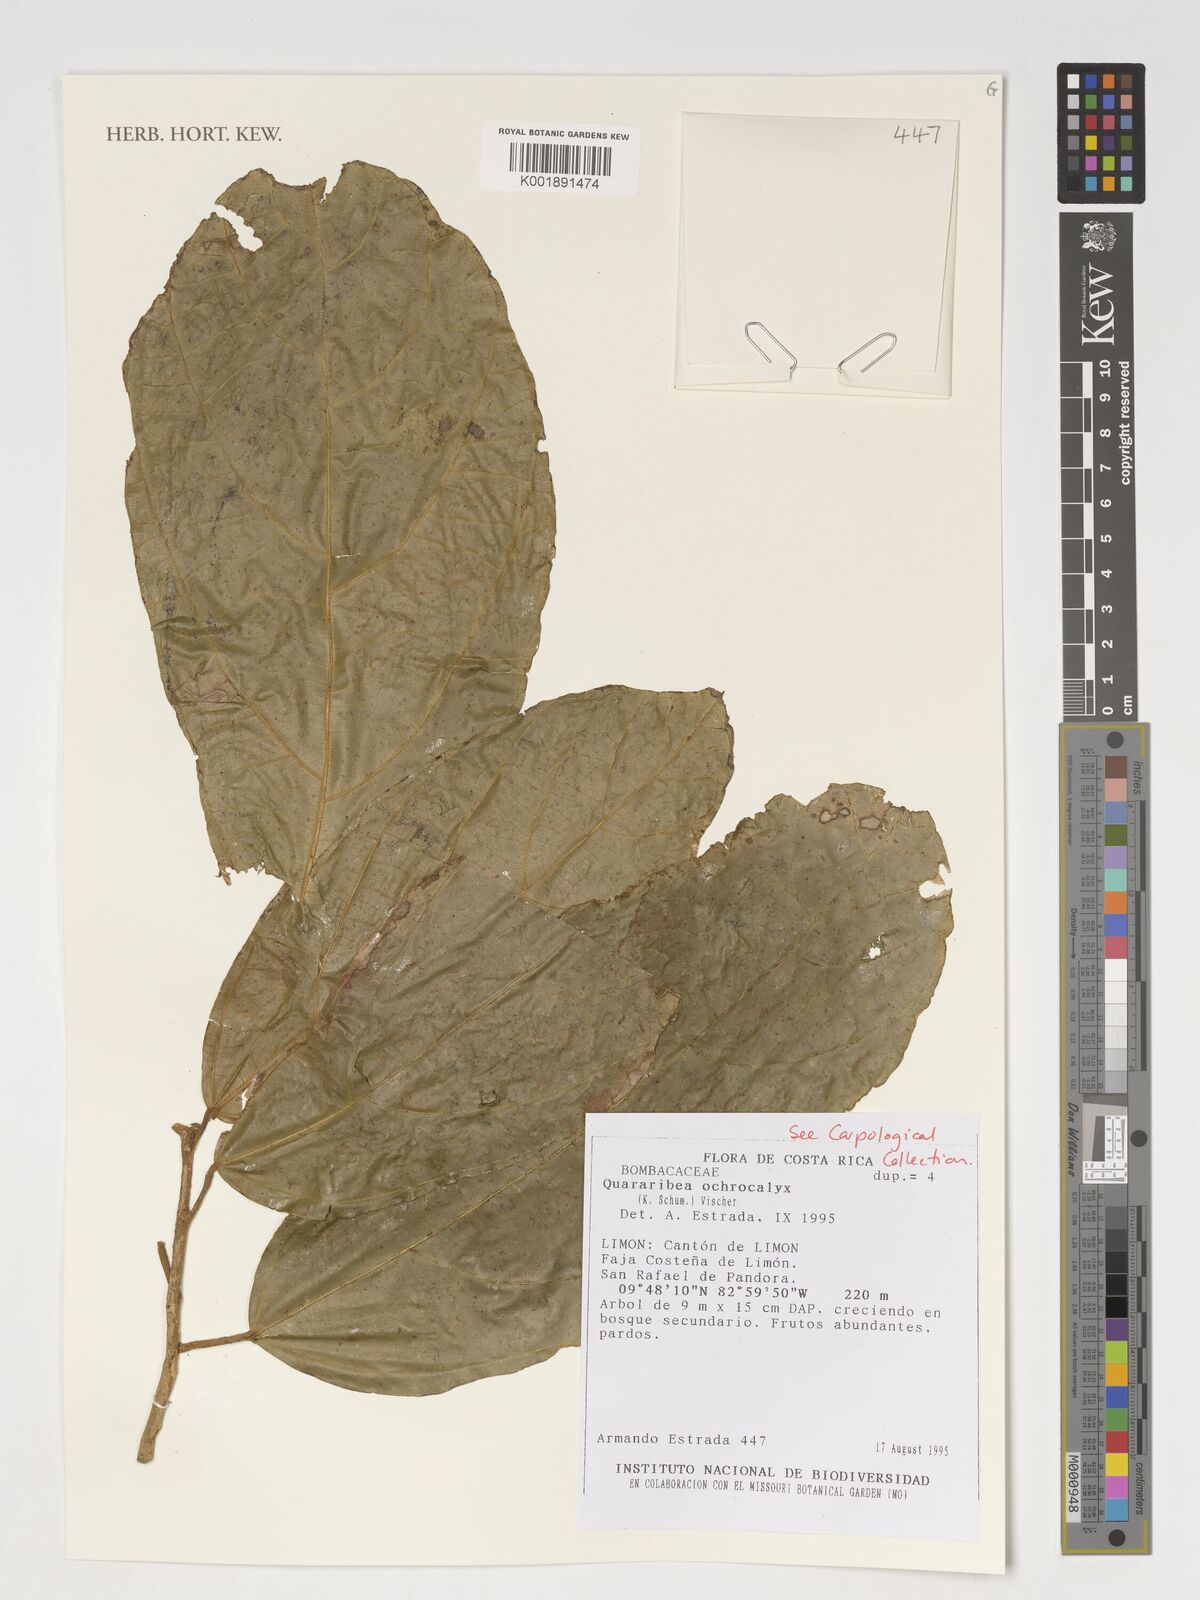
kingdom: Plantae
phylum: Tracheophyta
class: Magnoliopsida
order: Malvales
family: Malvaceae
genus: Matisia
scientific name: Matisia ochrocalyx
